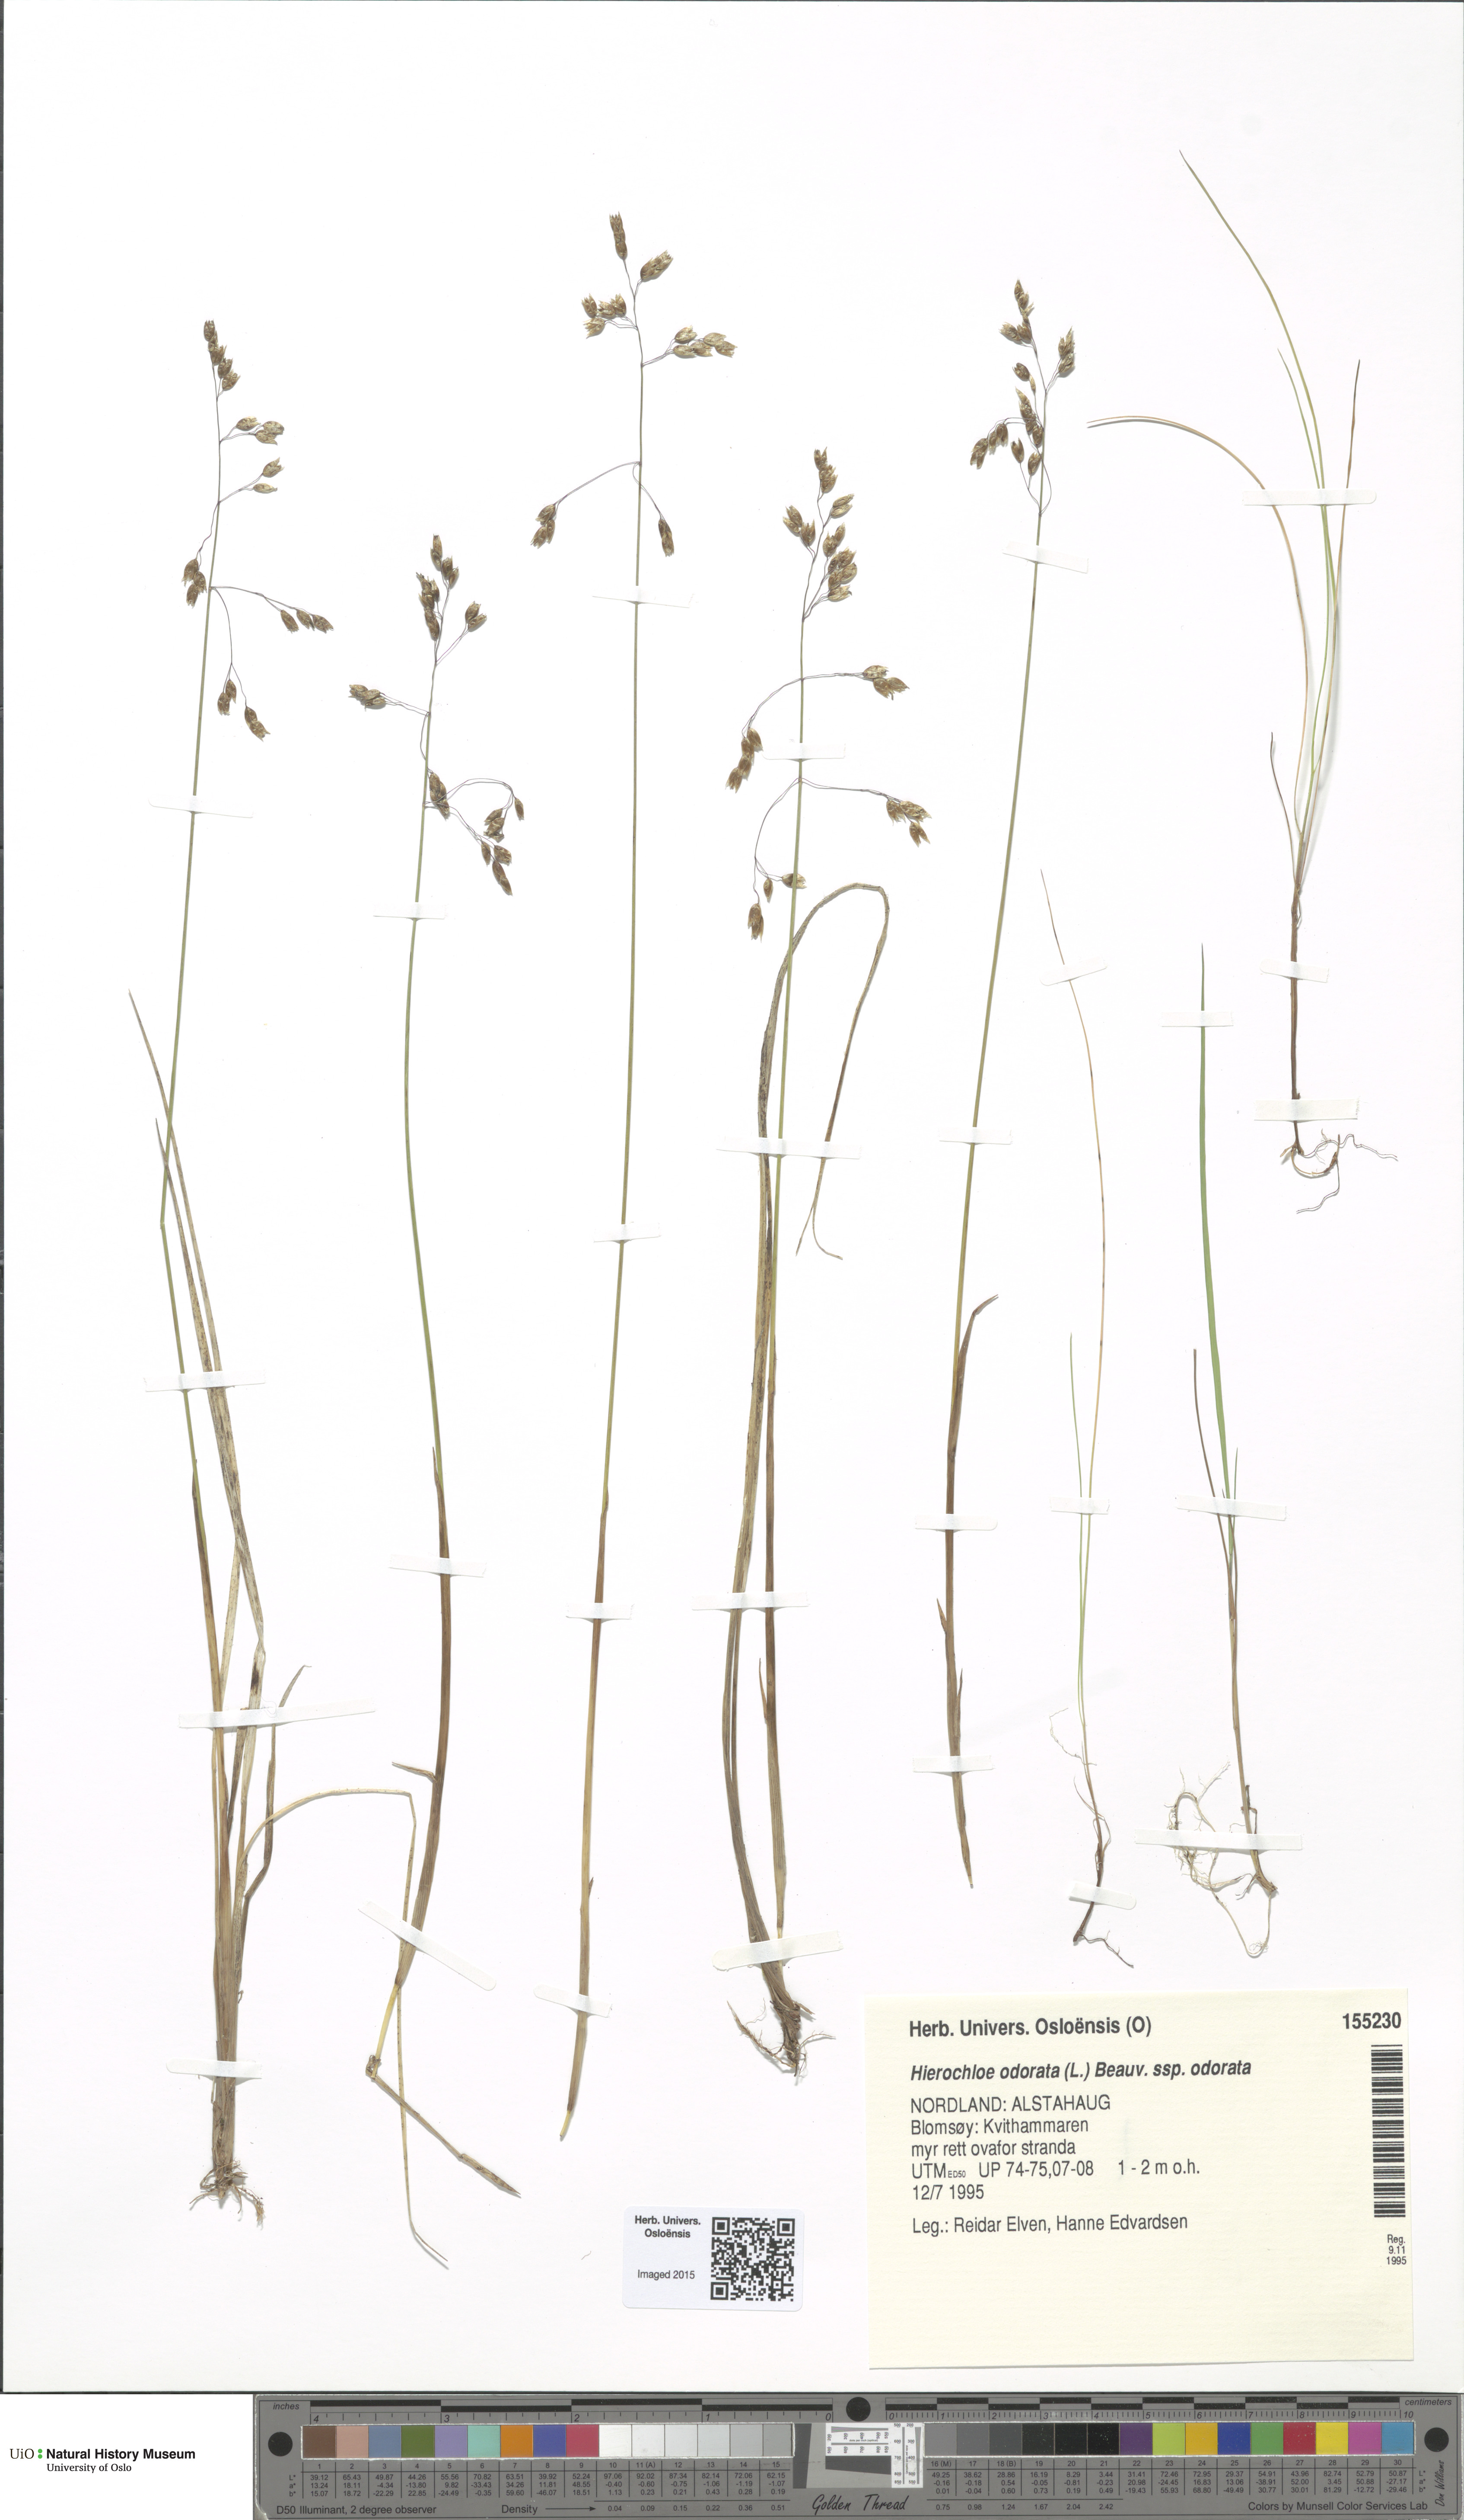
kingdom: Plantae
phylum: Tracheophyta
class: Liliopsida
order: Poales
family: Poaceae
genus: Anthoxanthum
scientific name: Anthoxanthum nitens
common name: Holy grass
